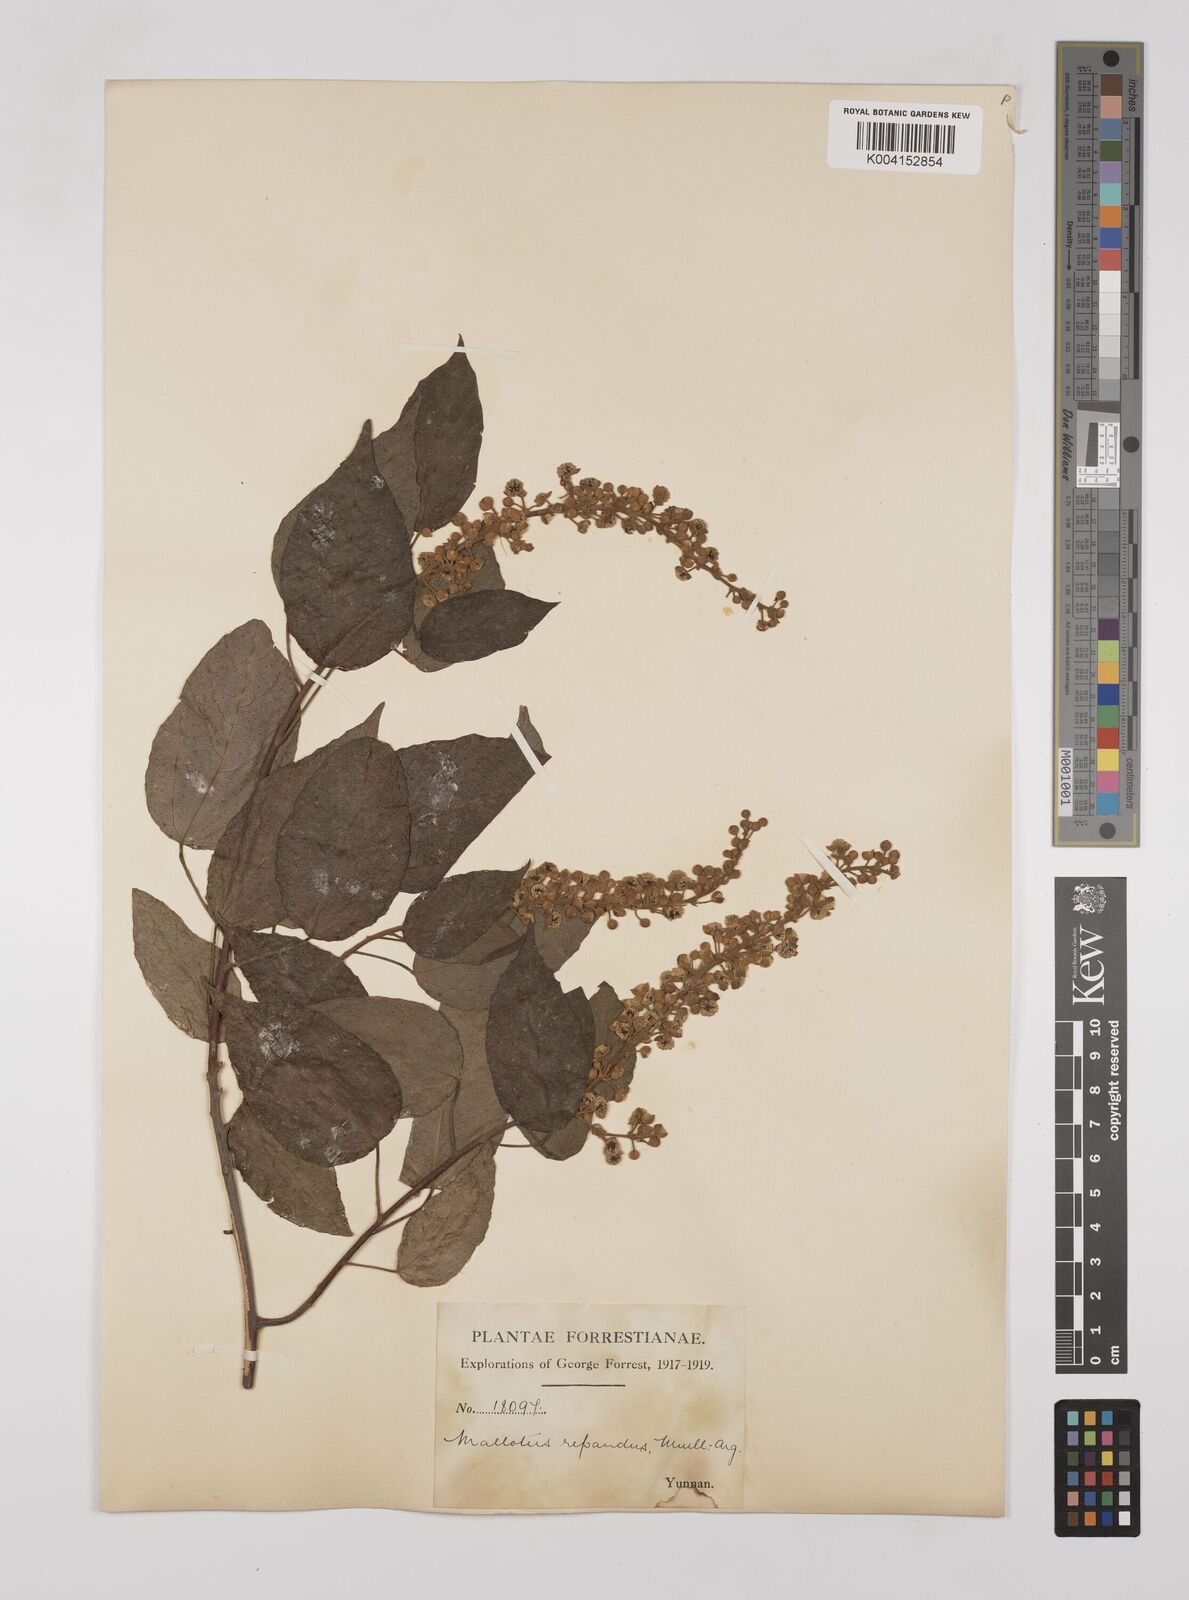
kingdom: Plantae
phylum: Tracheophyta
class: Magnoliopsida
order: Malpighiales
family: Euphorbiaceae
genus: Mallotus
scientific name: Mallotus illudens
